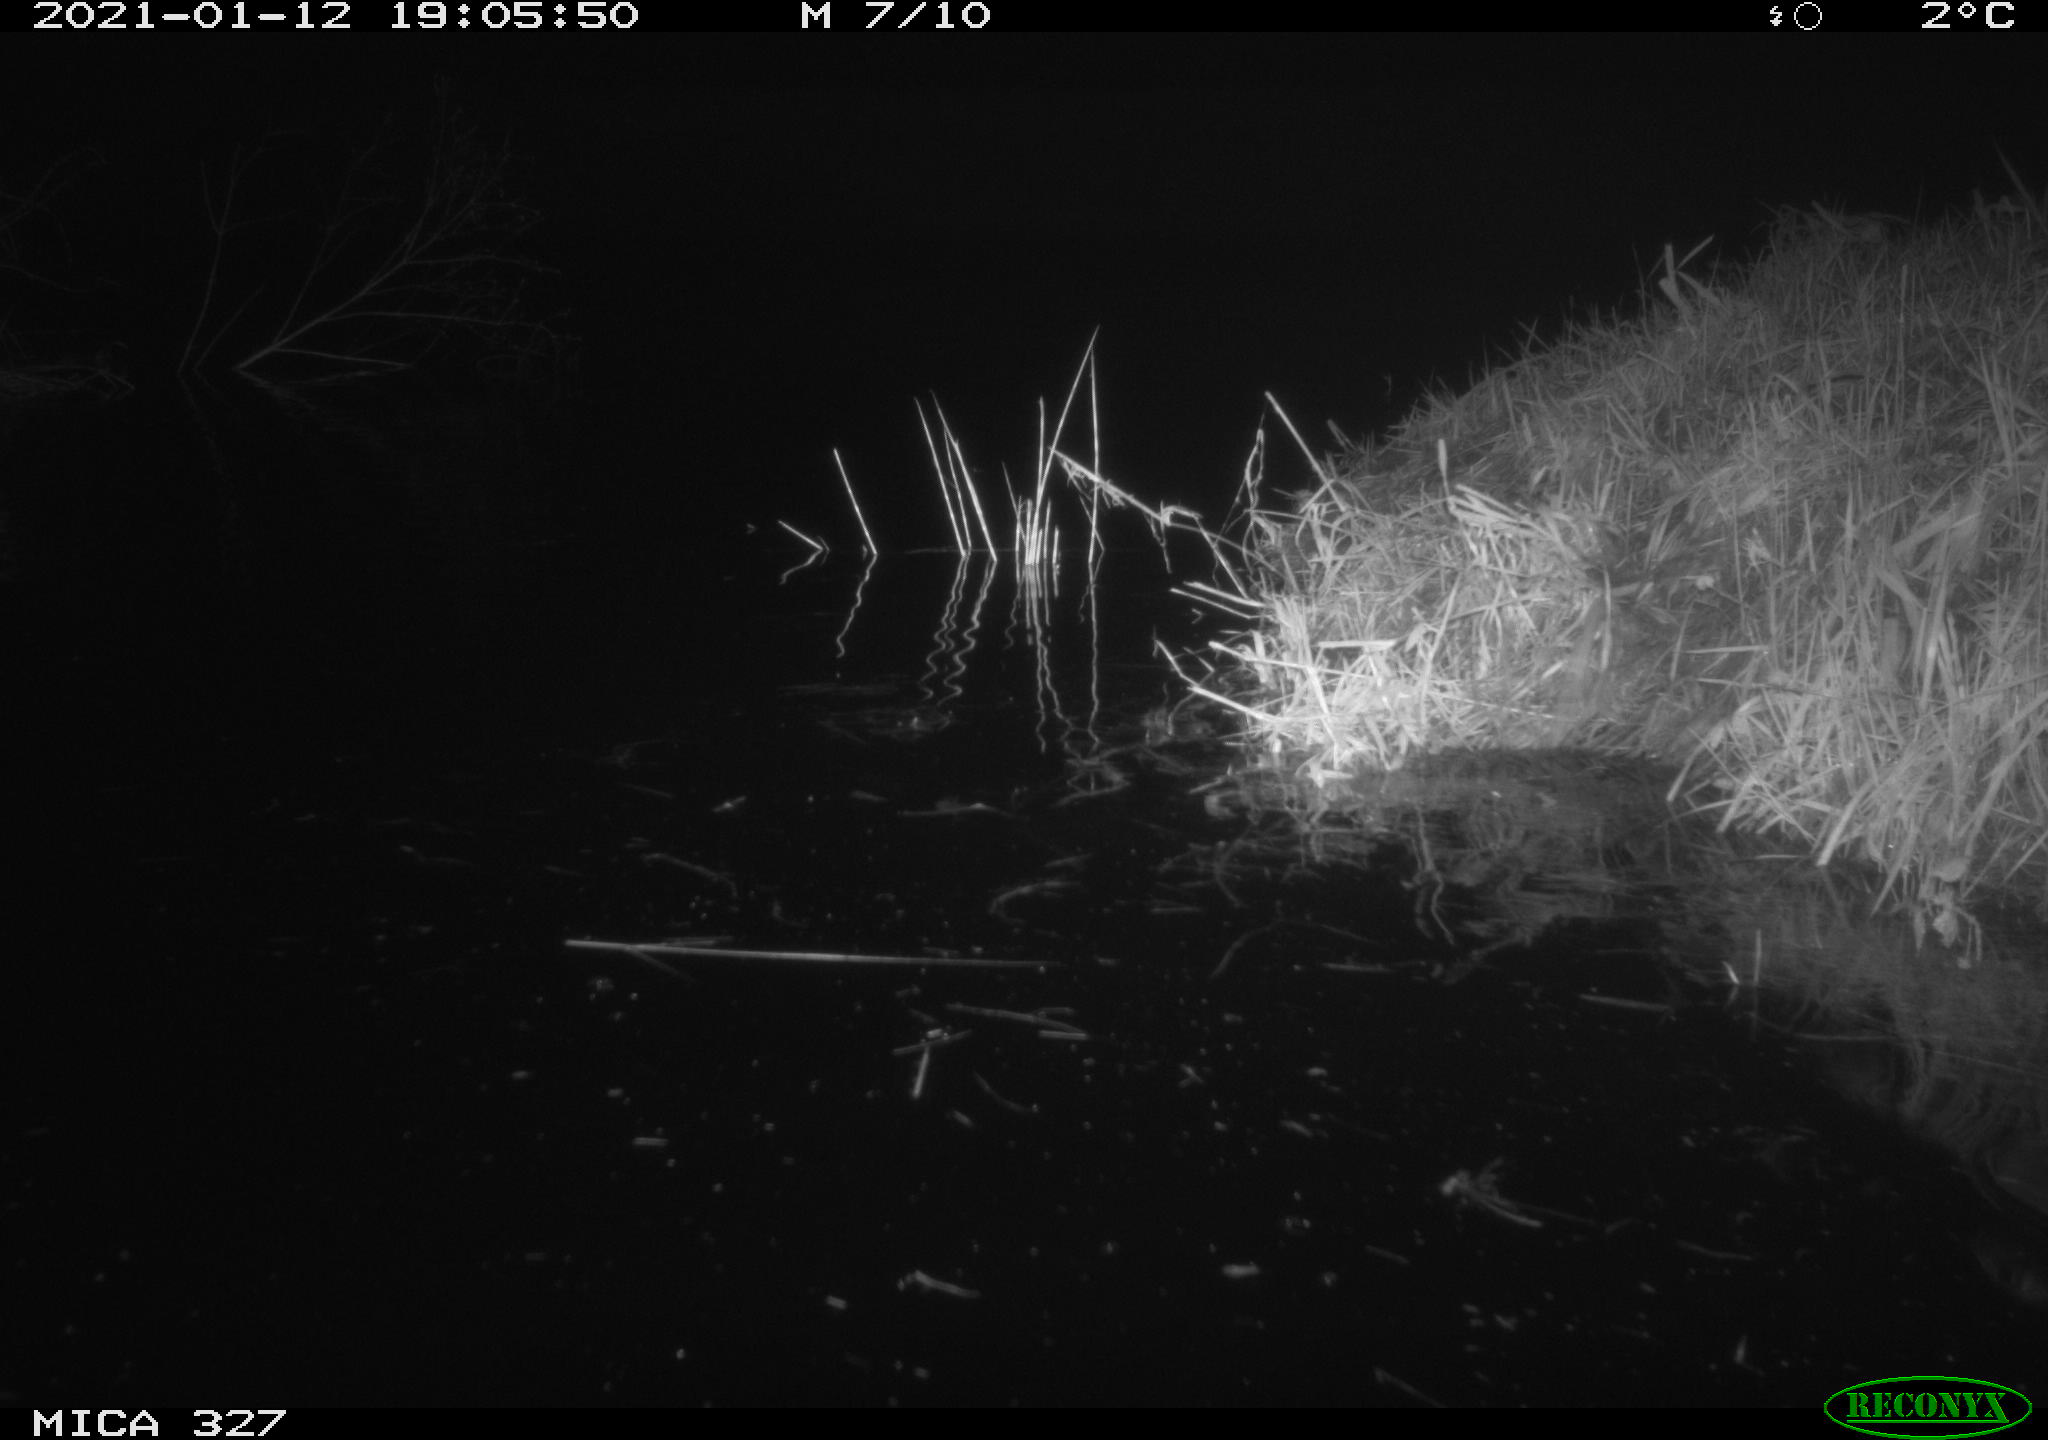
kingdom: Animalia
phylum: Chordata
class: Mammalia
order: Rodentia
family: Cricetidae
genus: Ondatra
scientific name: Ondatra zibethicus
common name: Muskrat
